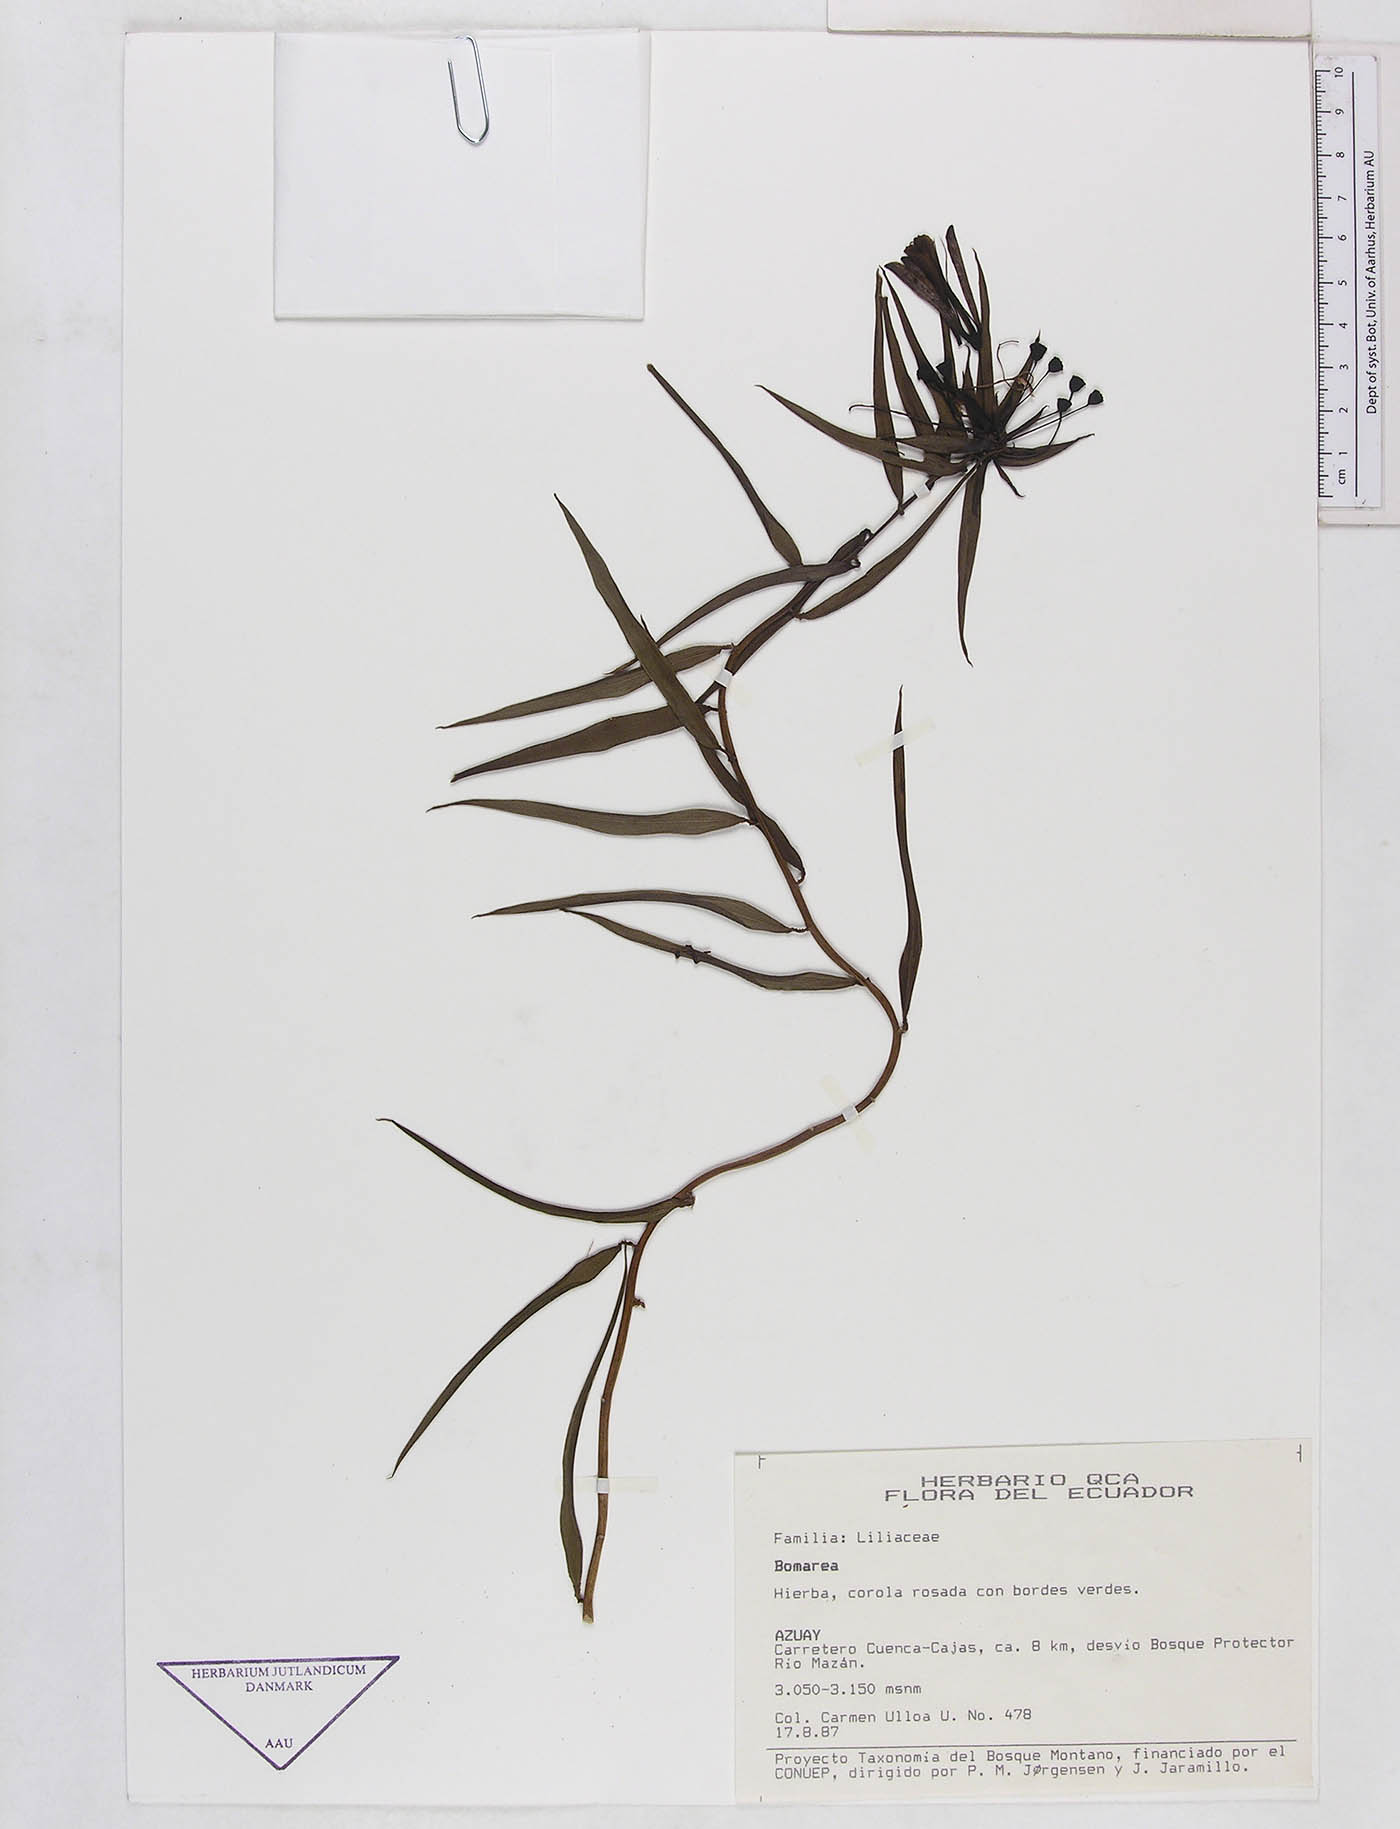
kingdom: Plantae
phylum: Tracheophyta
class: Liliopsida
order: Liliales
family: Alstroemeriaceae
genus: Bomarea
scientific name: Bomarea
